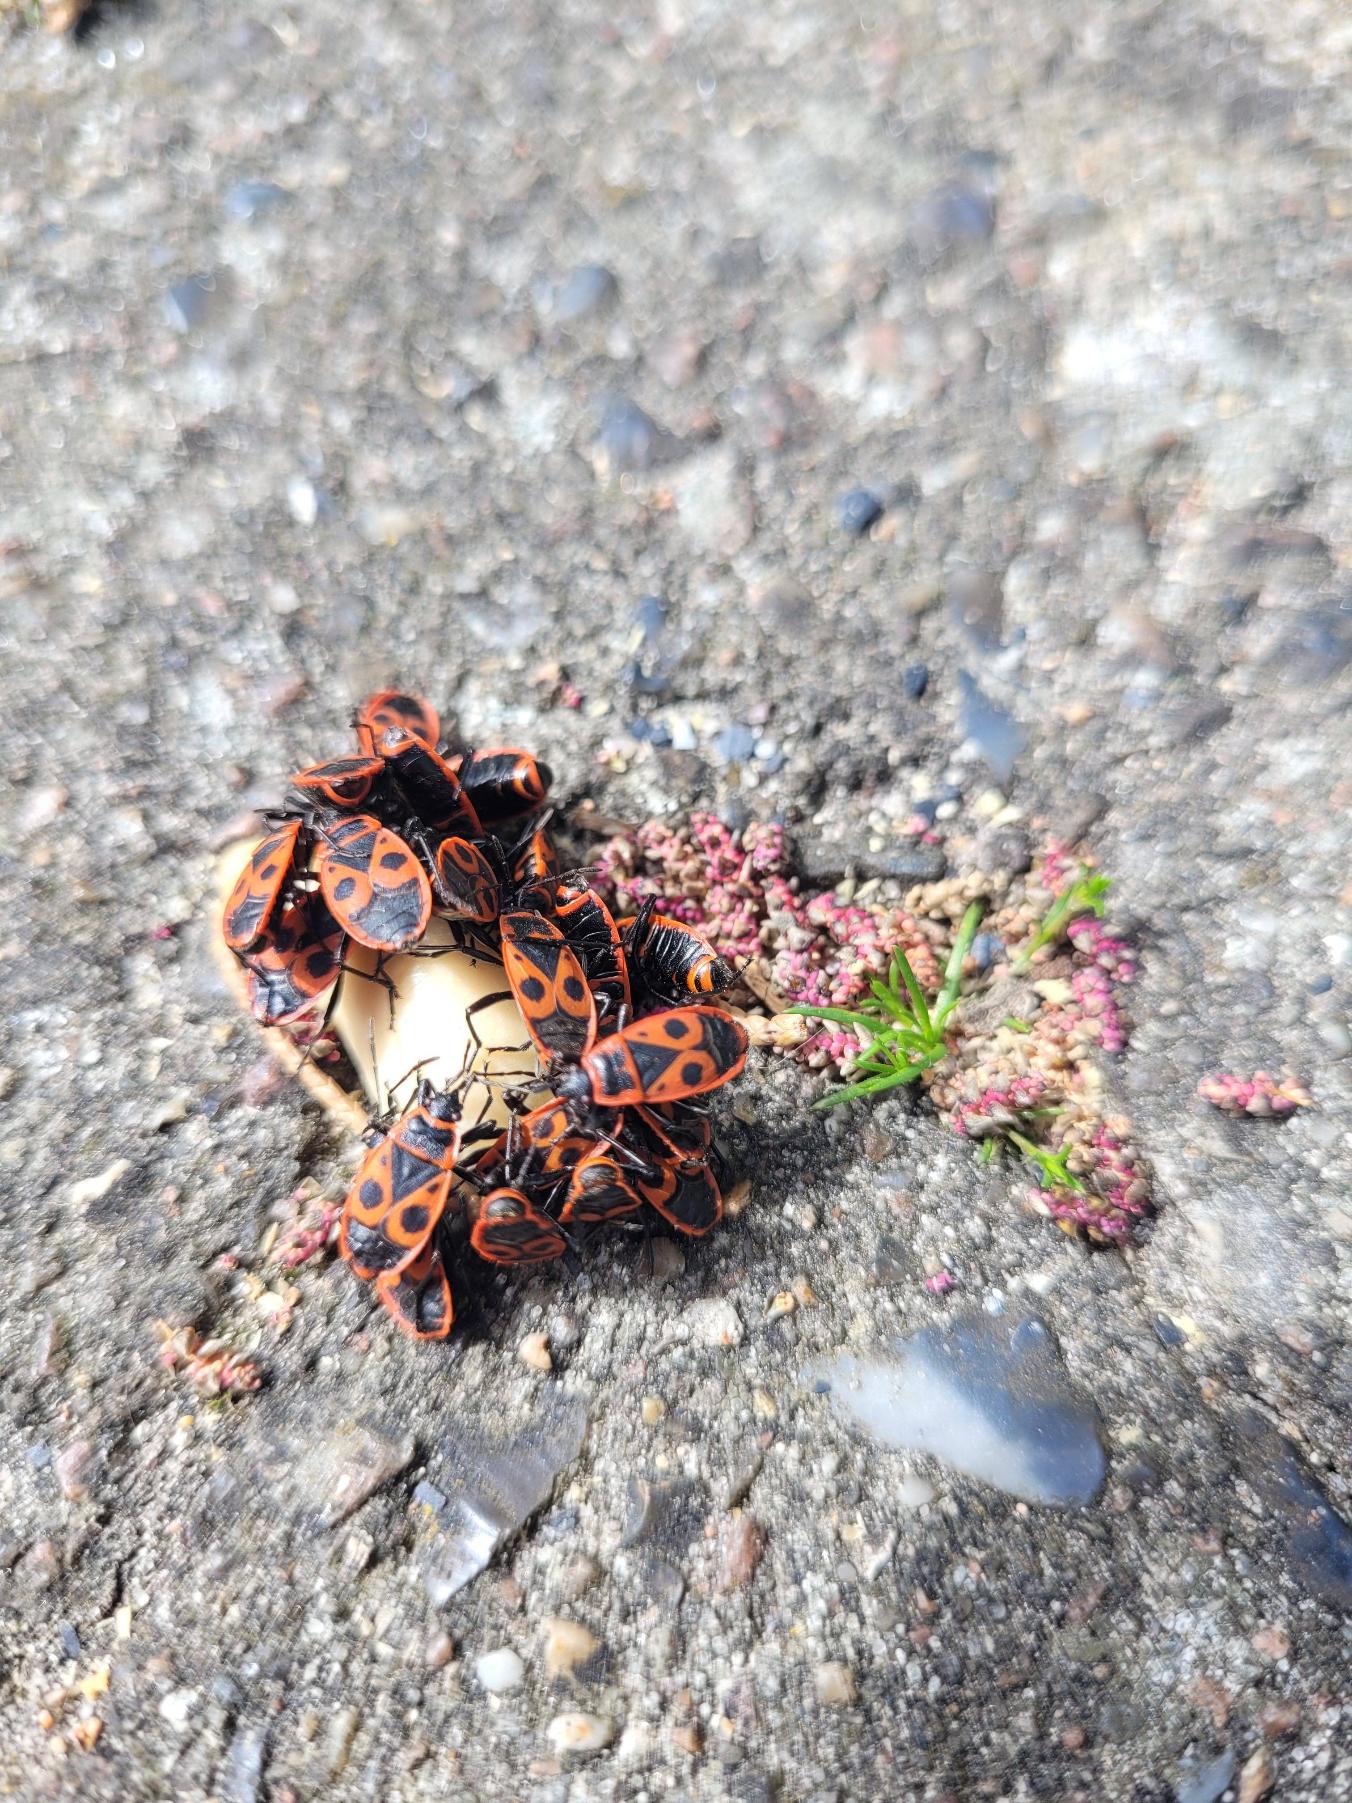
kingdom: Animalia
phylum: Arthropoda
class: Insecta
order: Hemiptera
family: Pyrrhocoridae
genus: Pyrrhocoris
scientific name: Pyrrhocoris apterus
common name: Ildtæge
